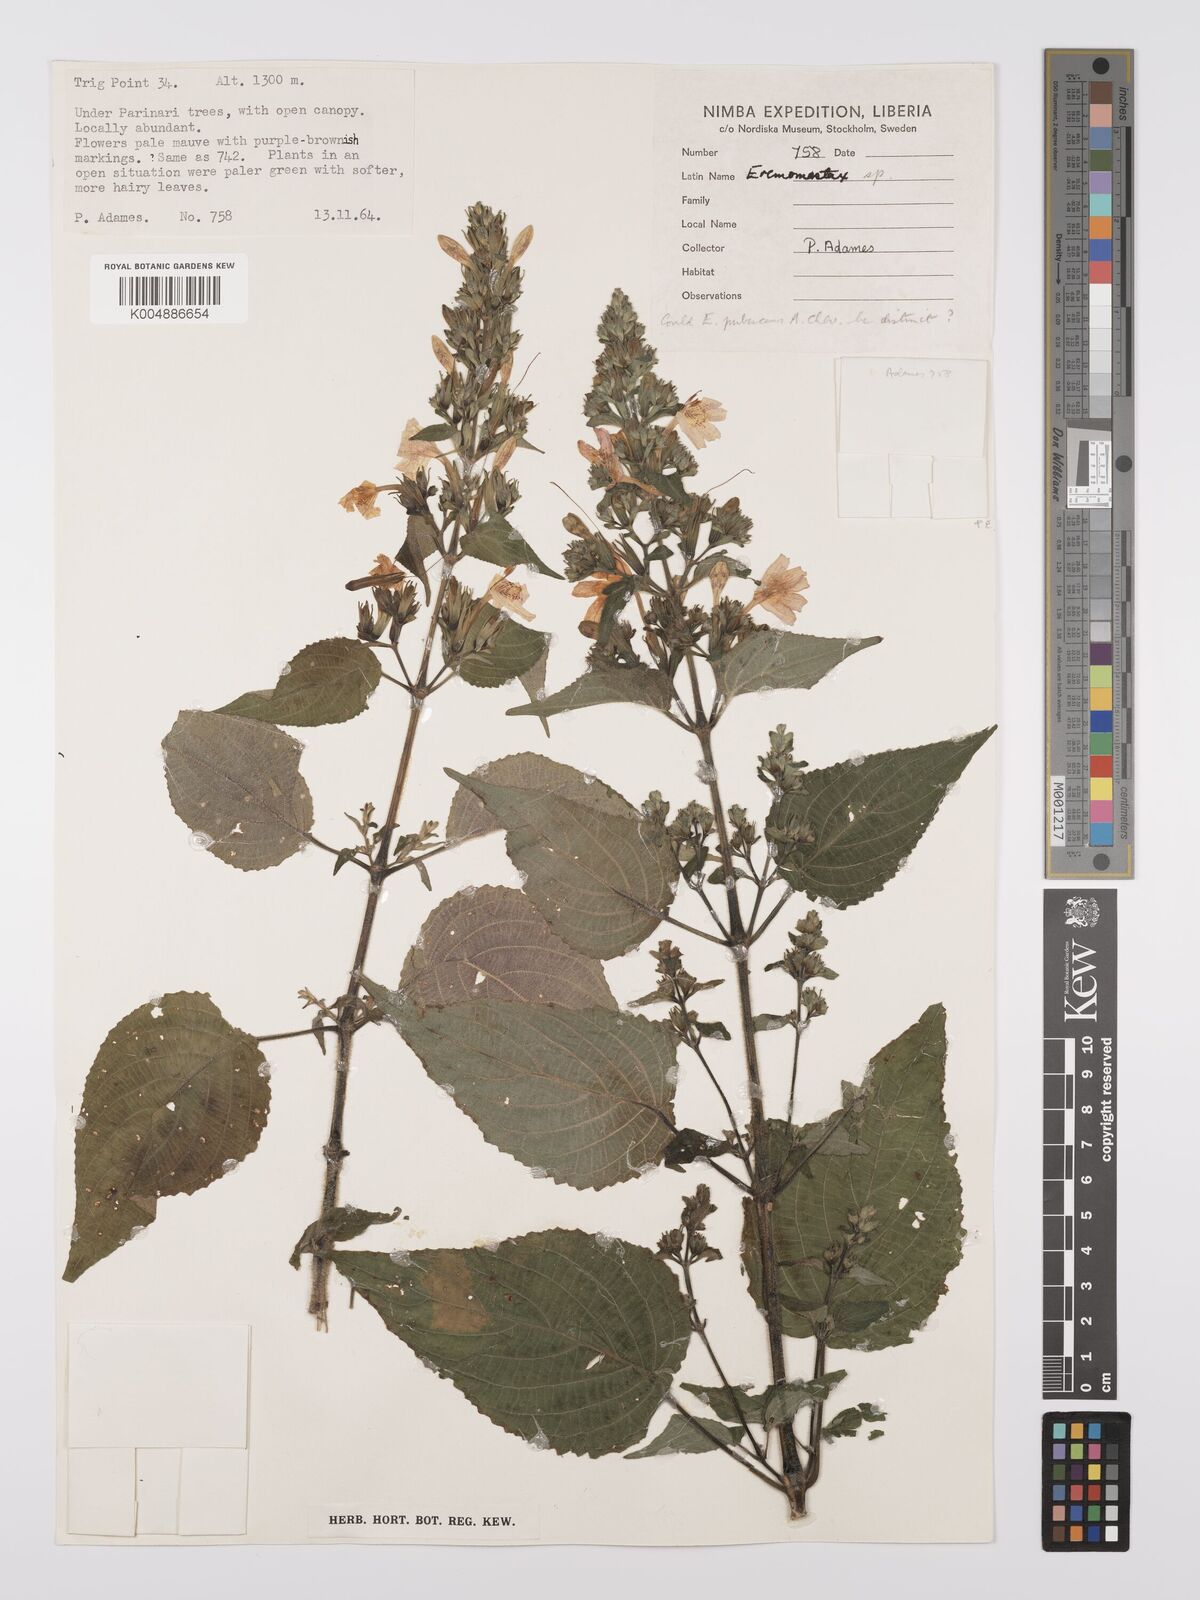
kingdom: Plantae
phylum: Tracheophyta
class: Magnoliopsida
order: Lamiales
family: Acanthaceae
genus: Eremomastax
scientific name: Eremomastax speciosa
